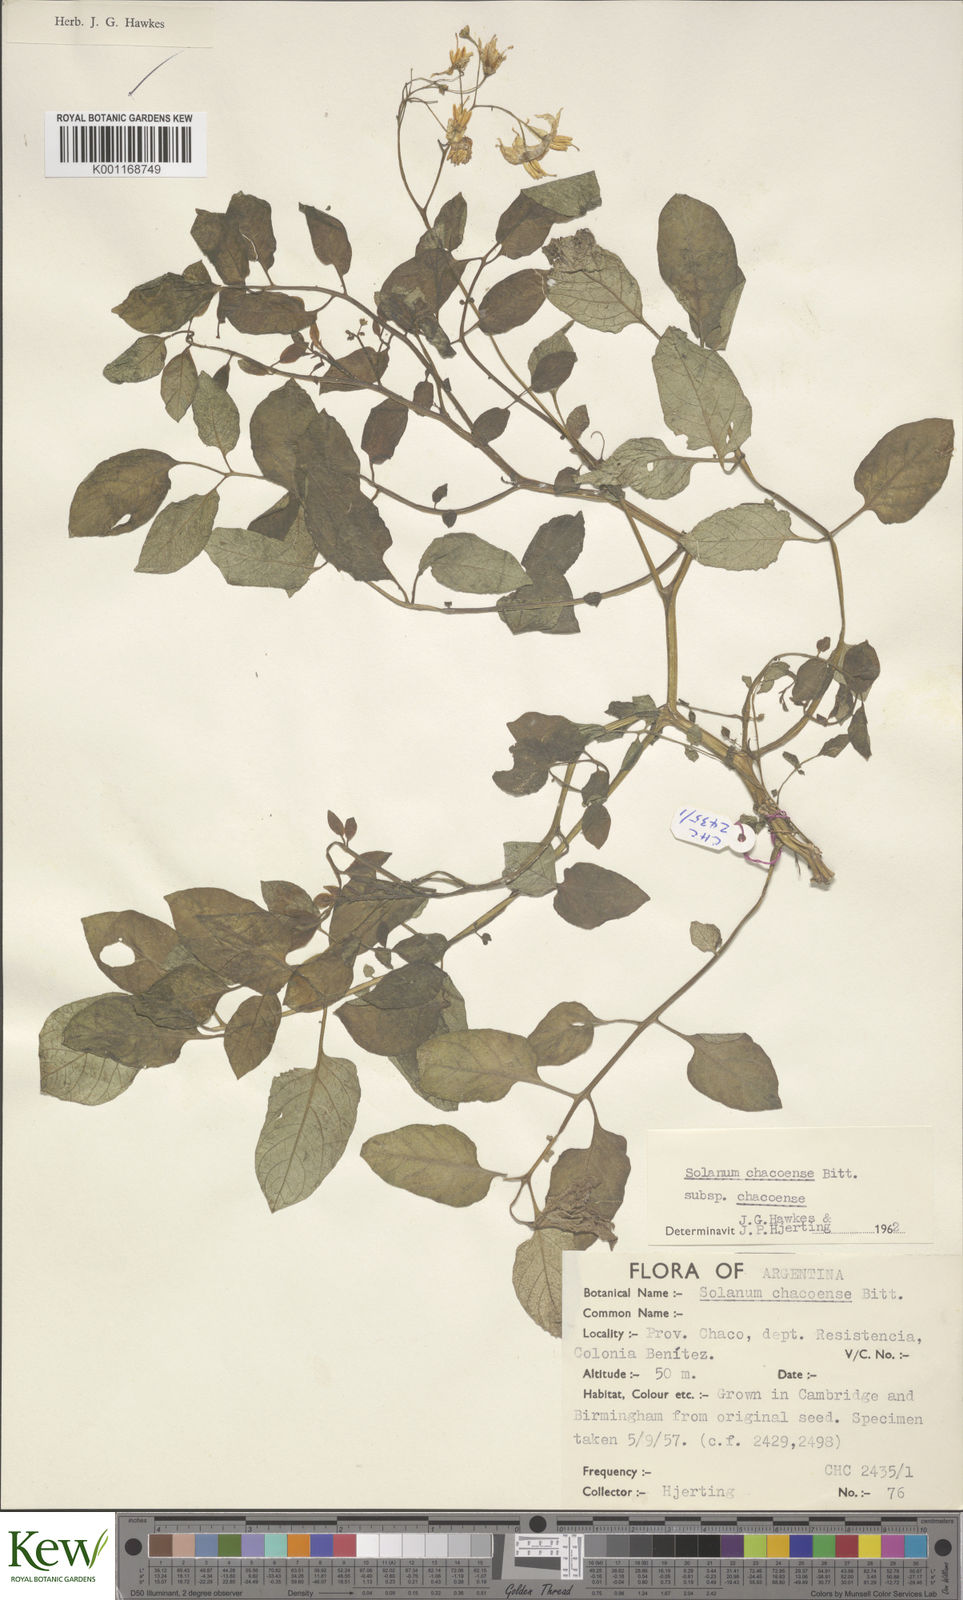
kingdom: Plantae
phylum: Tracheophyta
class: Magnoliopsida
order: Solanales
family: Solanaceae
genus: Solanum
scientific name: Solanum chacoense
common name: Chaco potato
